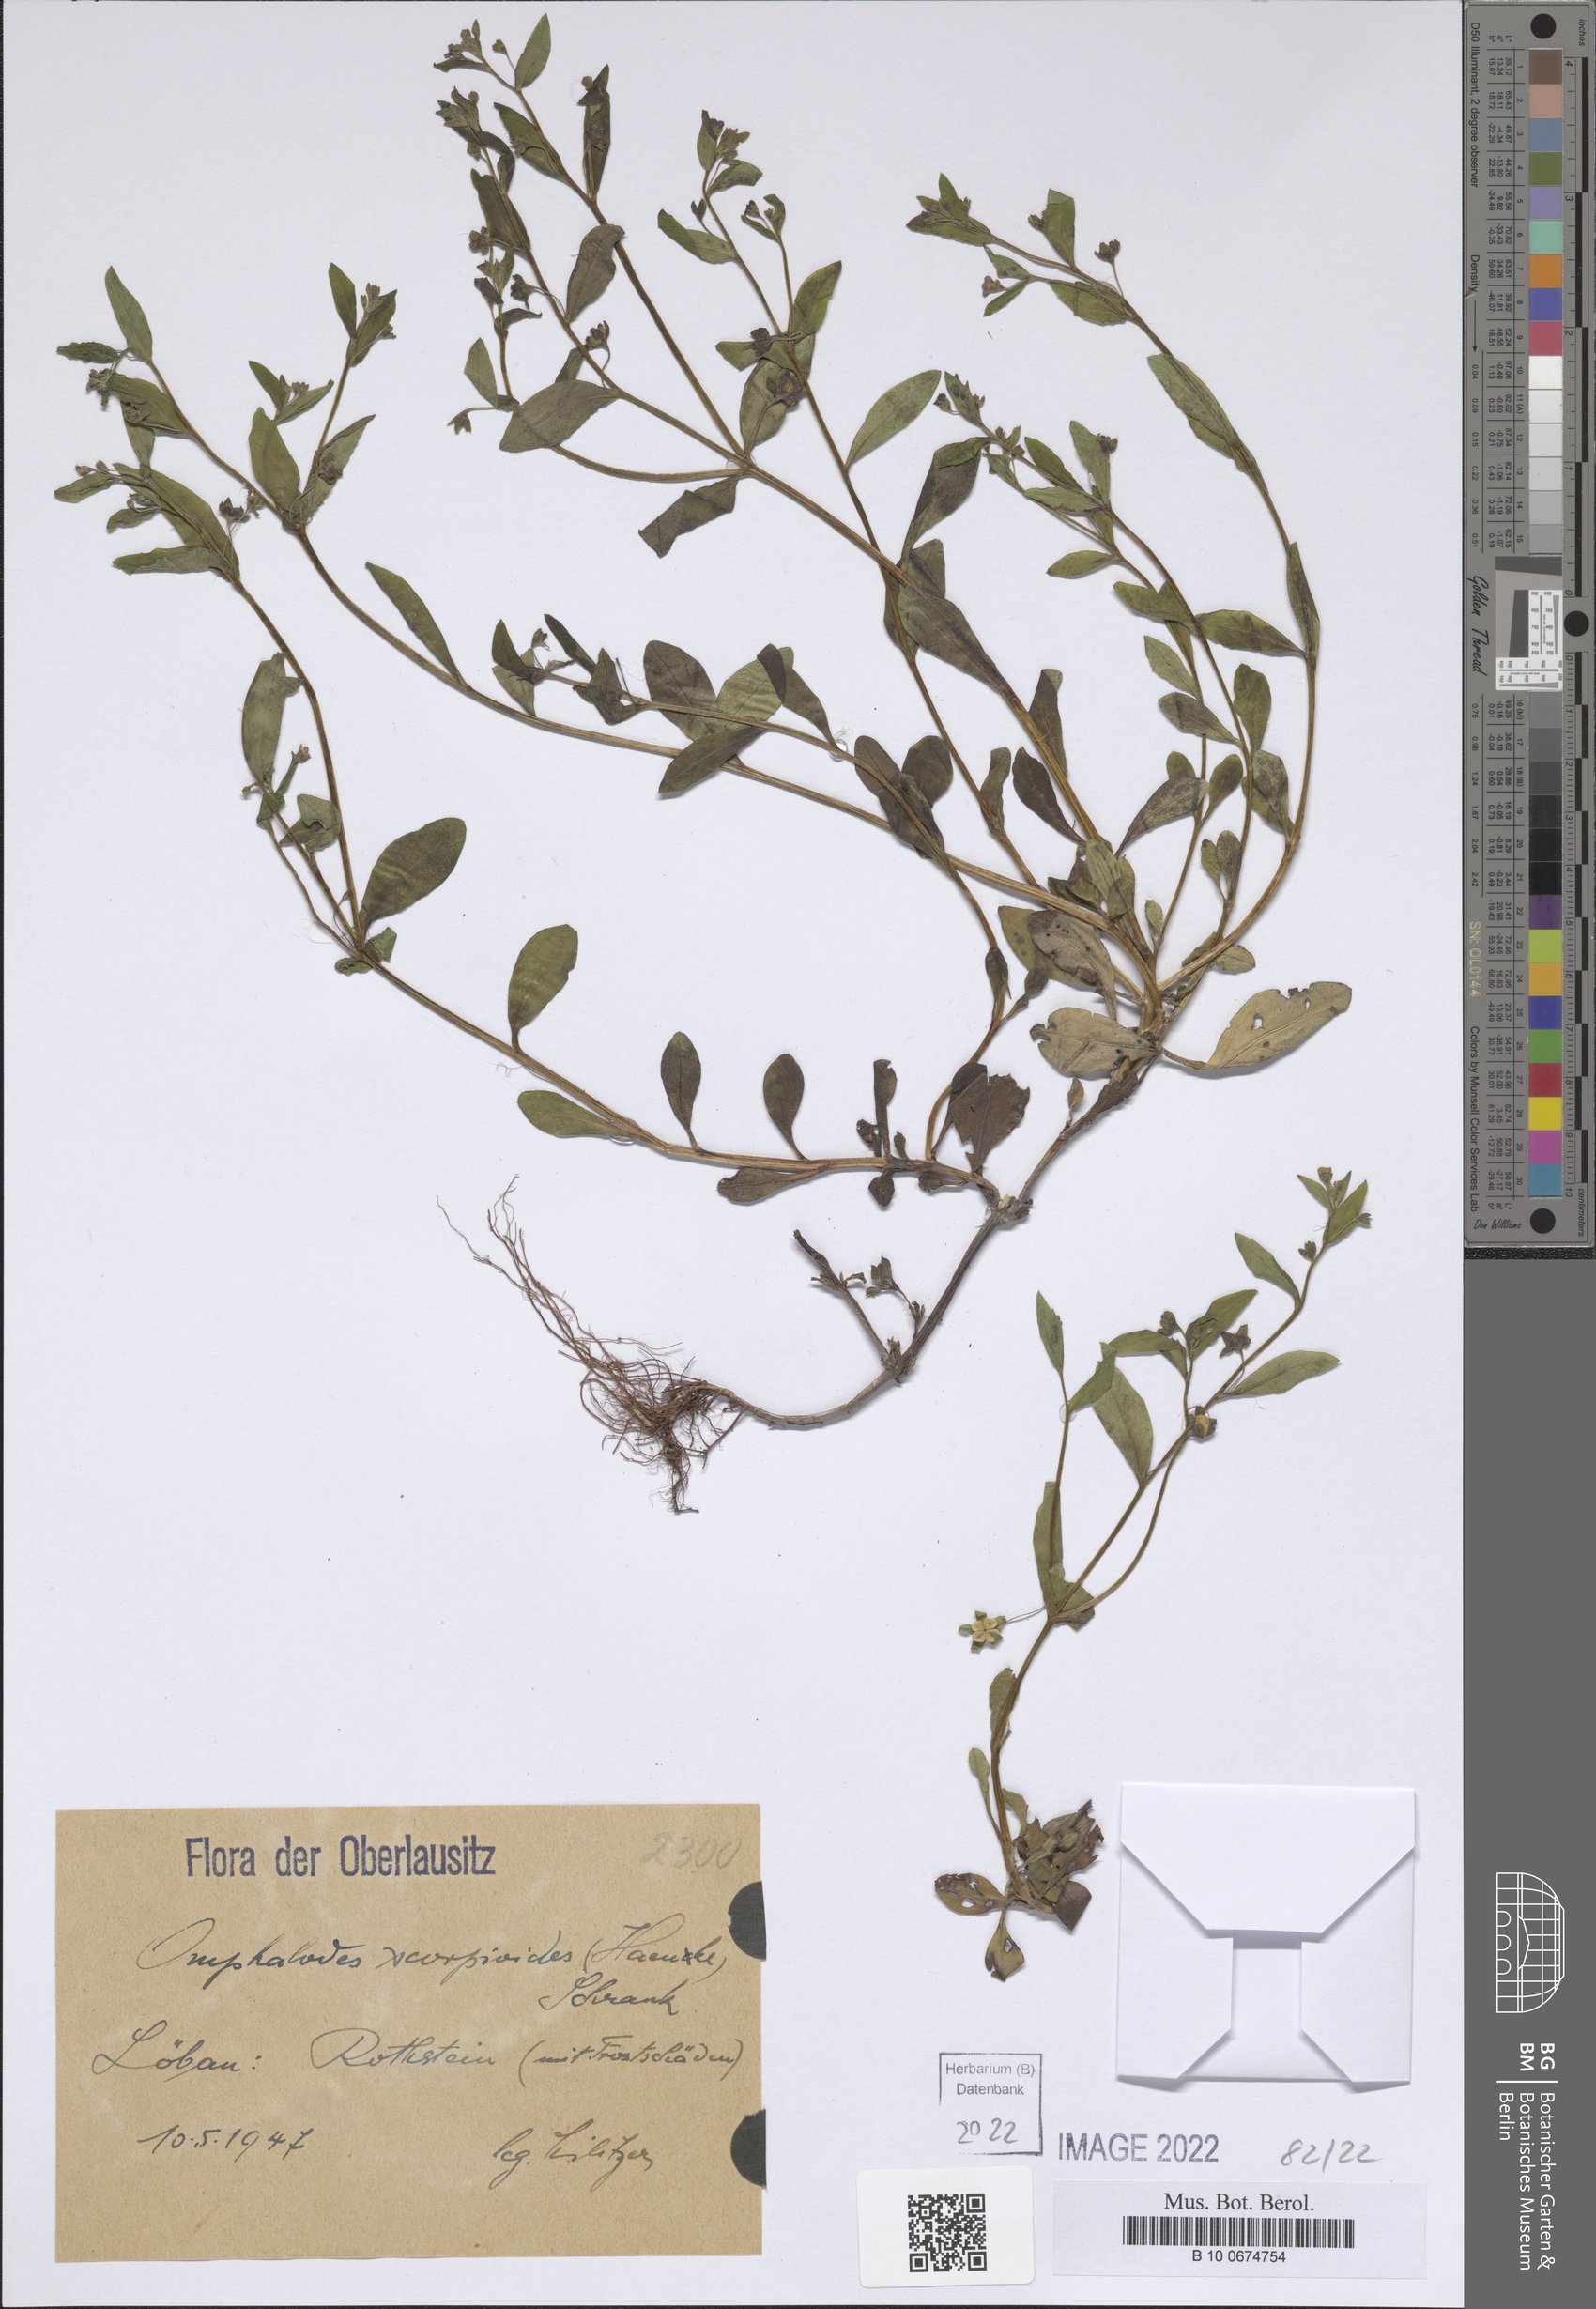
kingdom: Plantae
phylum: Tracheophyta
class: Magnoliopsida
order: Boraginales
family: Boraginaceae
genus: Memoremea
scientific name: Memoremea scorpioides
